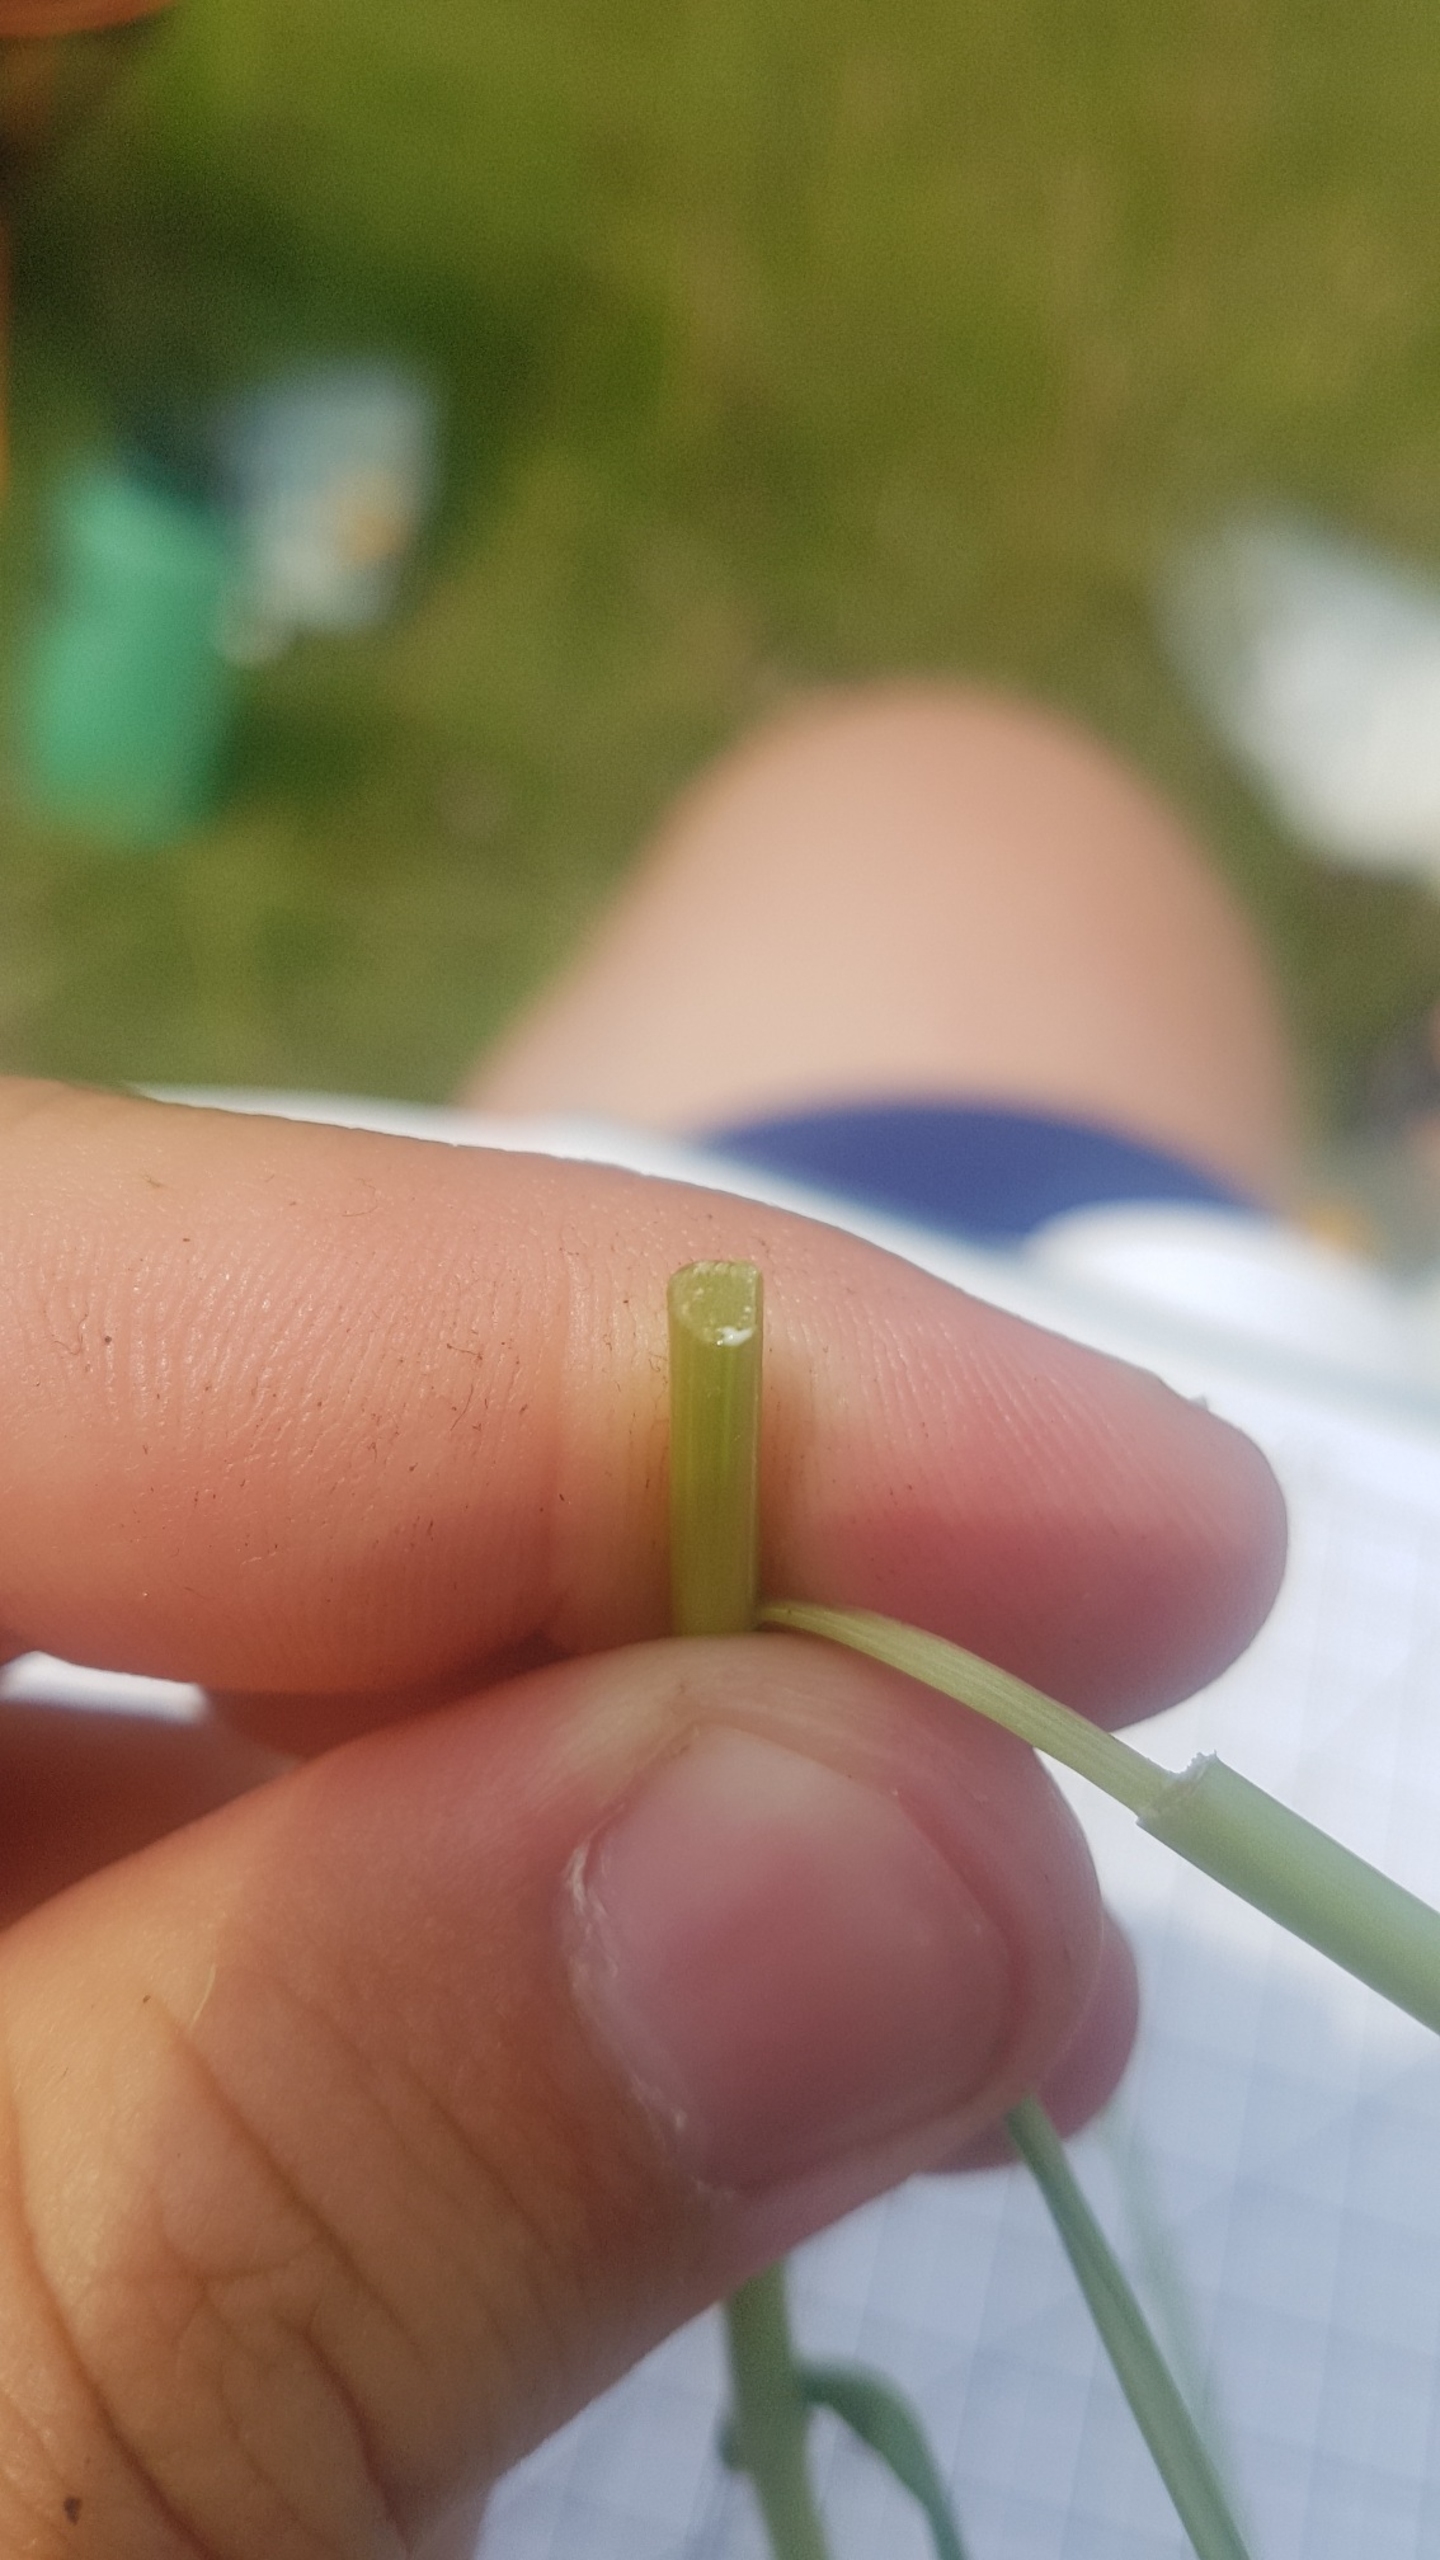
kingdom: Plantae
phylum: Tracheophyta
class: Magnoliopsida
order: Asterales
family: Asteraceae
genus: Tragopogon
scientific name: Tragopogon pratensis
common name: Gedeskæg
